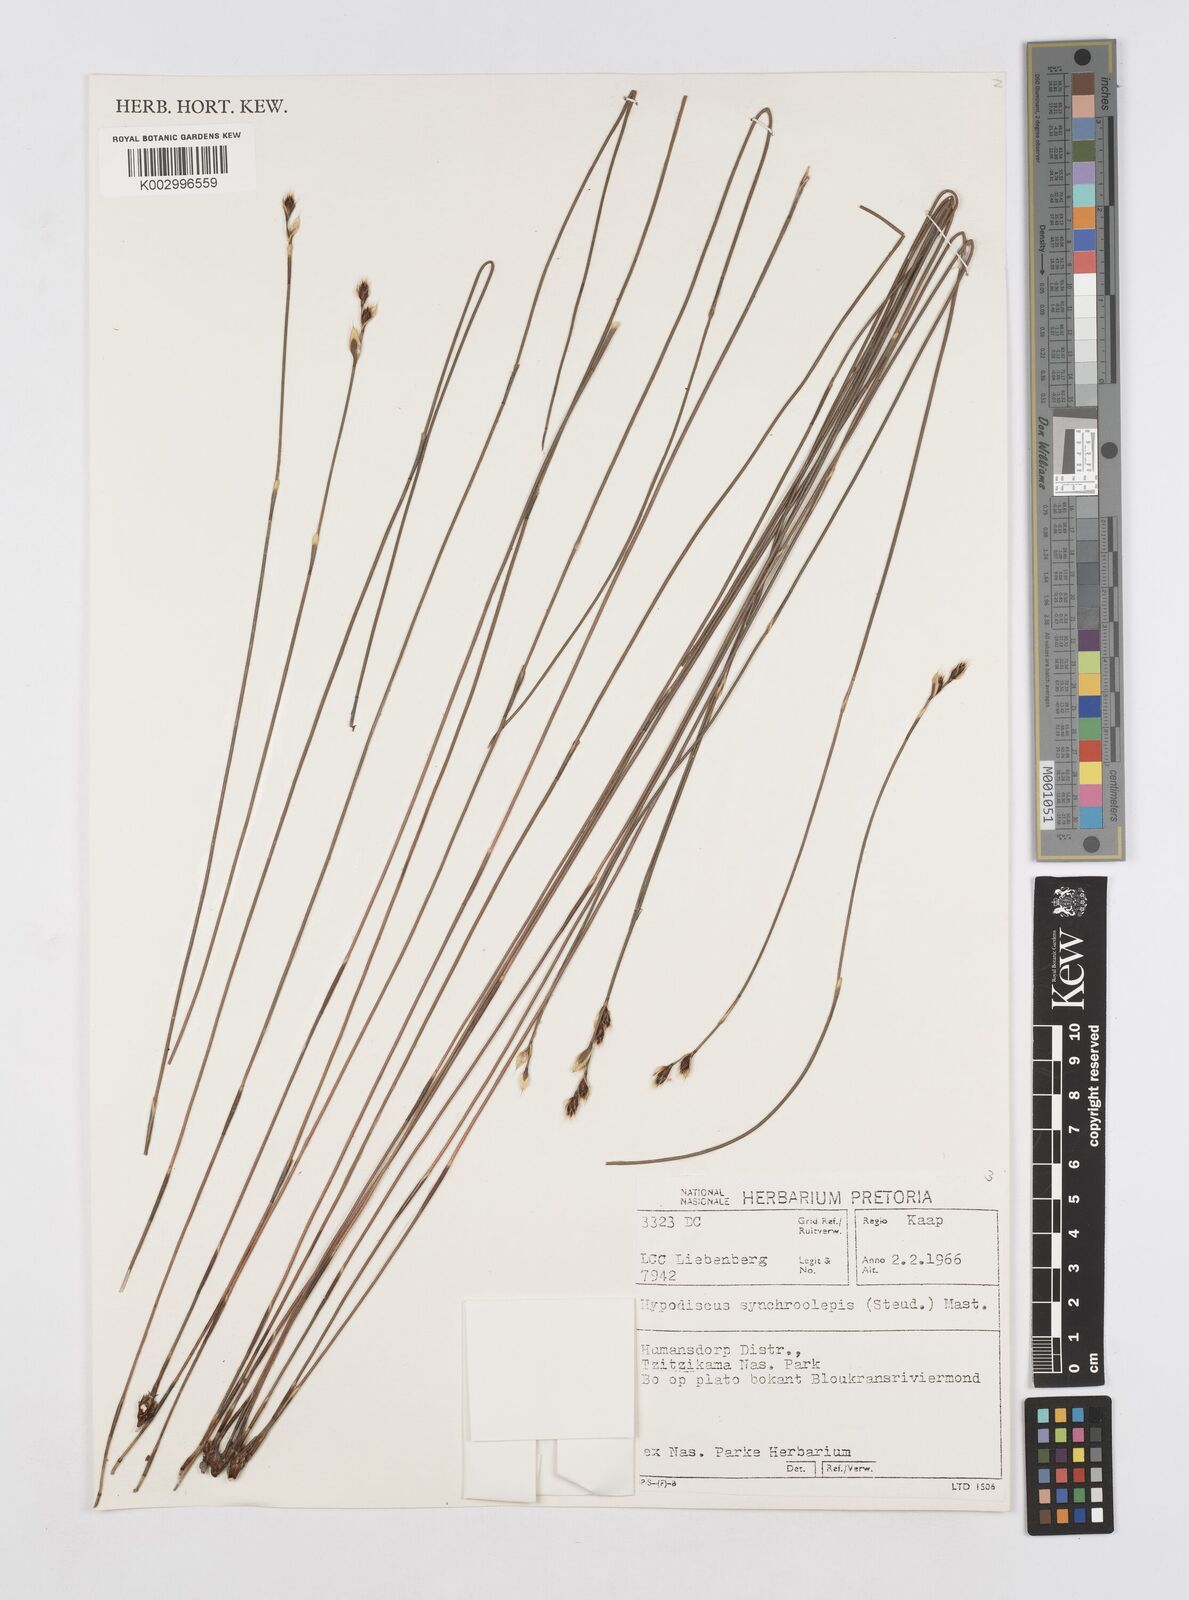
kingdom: Plantae
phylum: Tracheophyta
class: Liliopsida
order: Poales
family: Restionaceae
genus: Hypodiscus
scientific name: Hypodiscus synchroolepis
